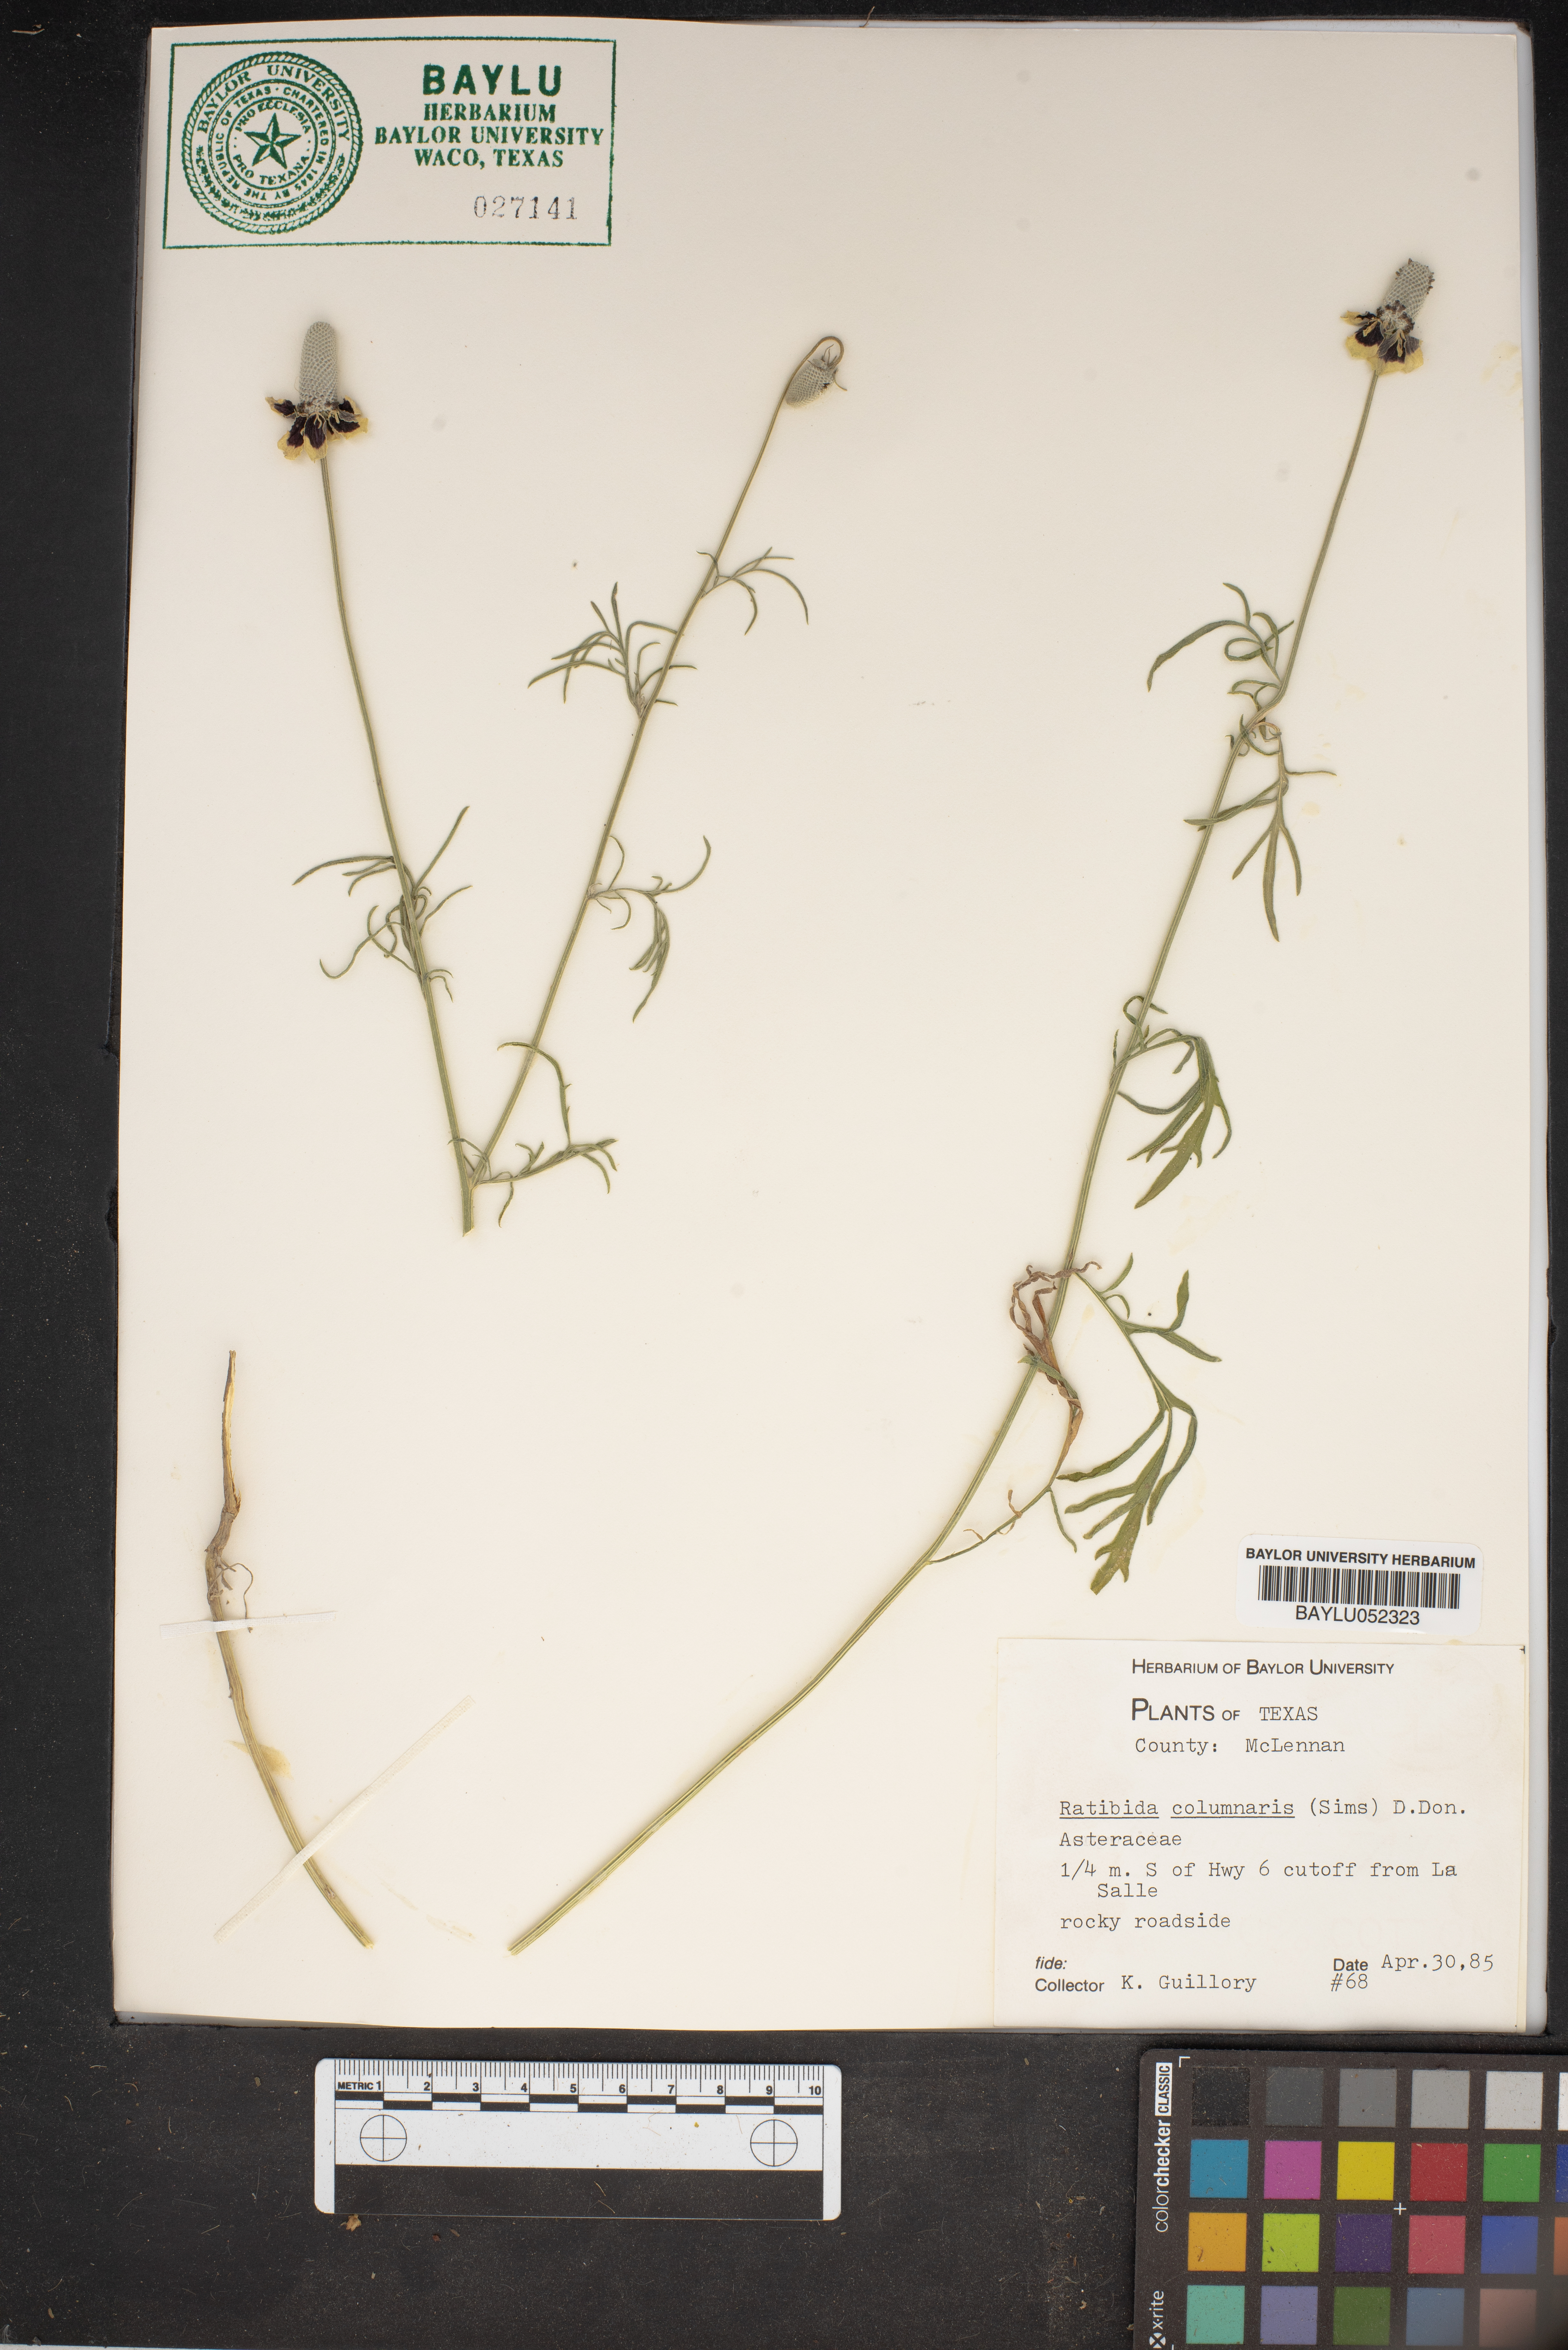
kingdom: Plantae
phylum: Tracheophyta
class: Magnoliopsida
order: Asterales
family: Asteraceae
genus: Ratibida
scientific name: Ratibida columnifera
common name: Prairie coneflower
